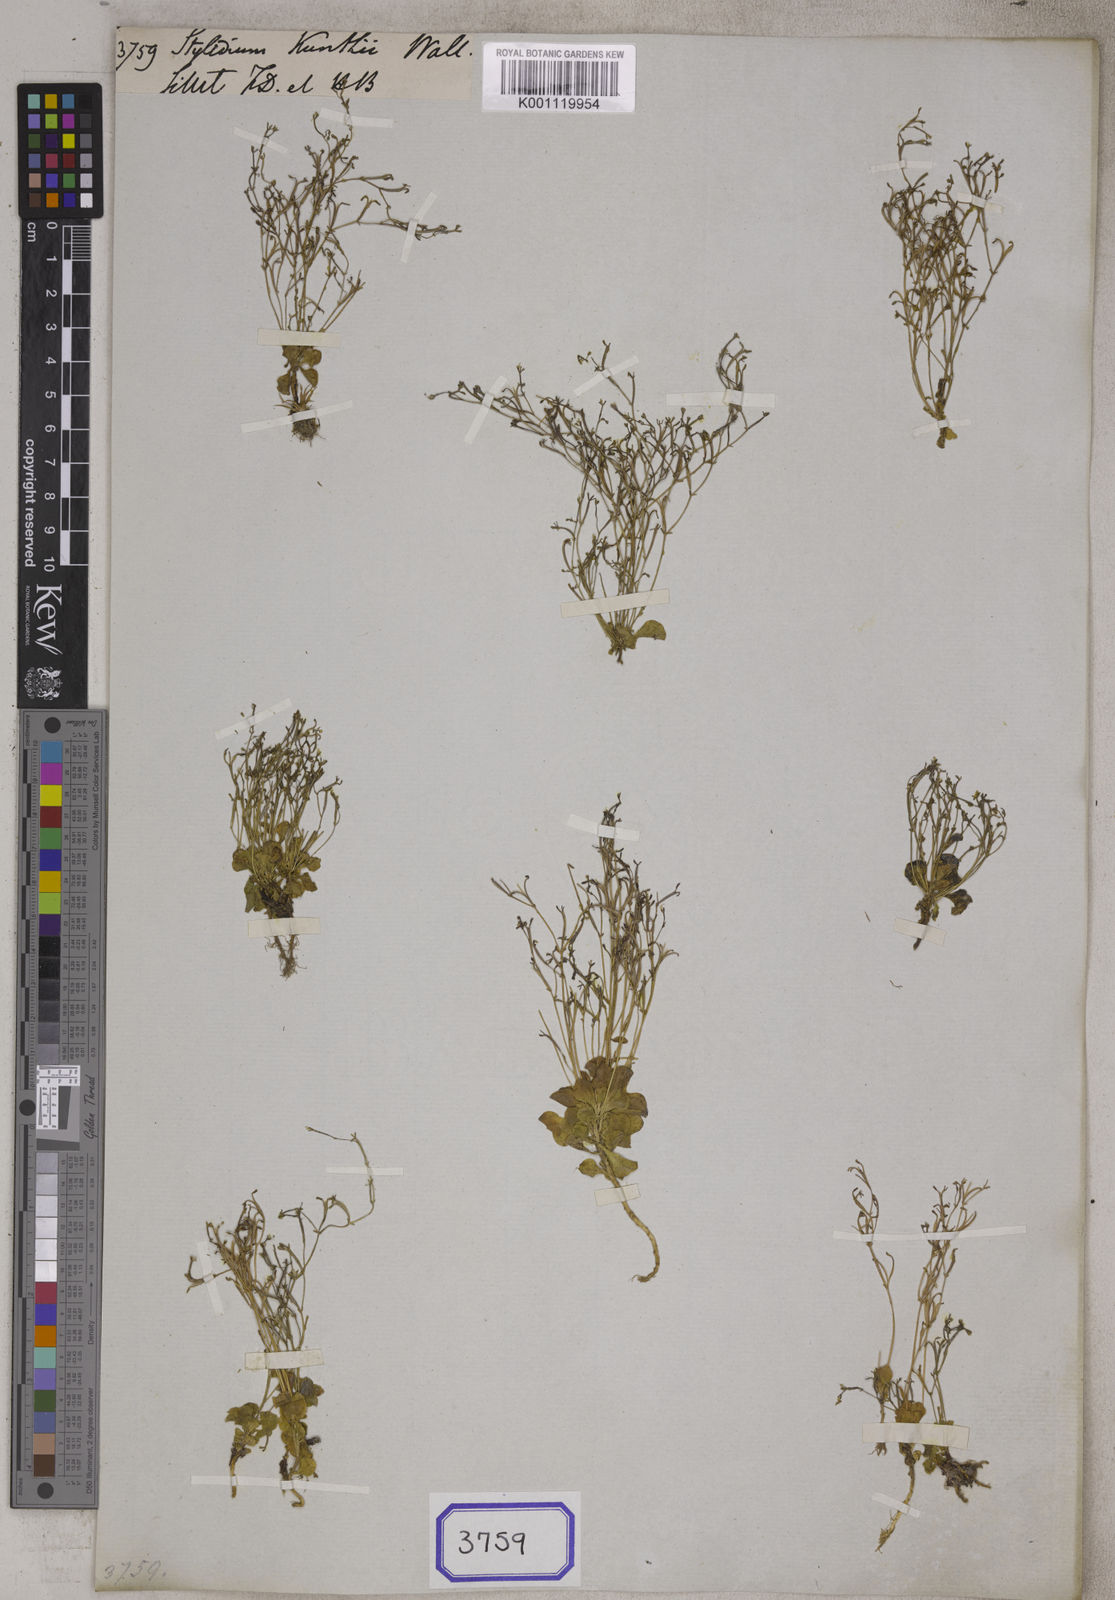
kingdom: Plantae
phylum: Tracheophyta
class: Magnoliopsida
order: Asterales
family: Stylidiaceae
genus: Stylidium
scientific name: Stylidium
